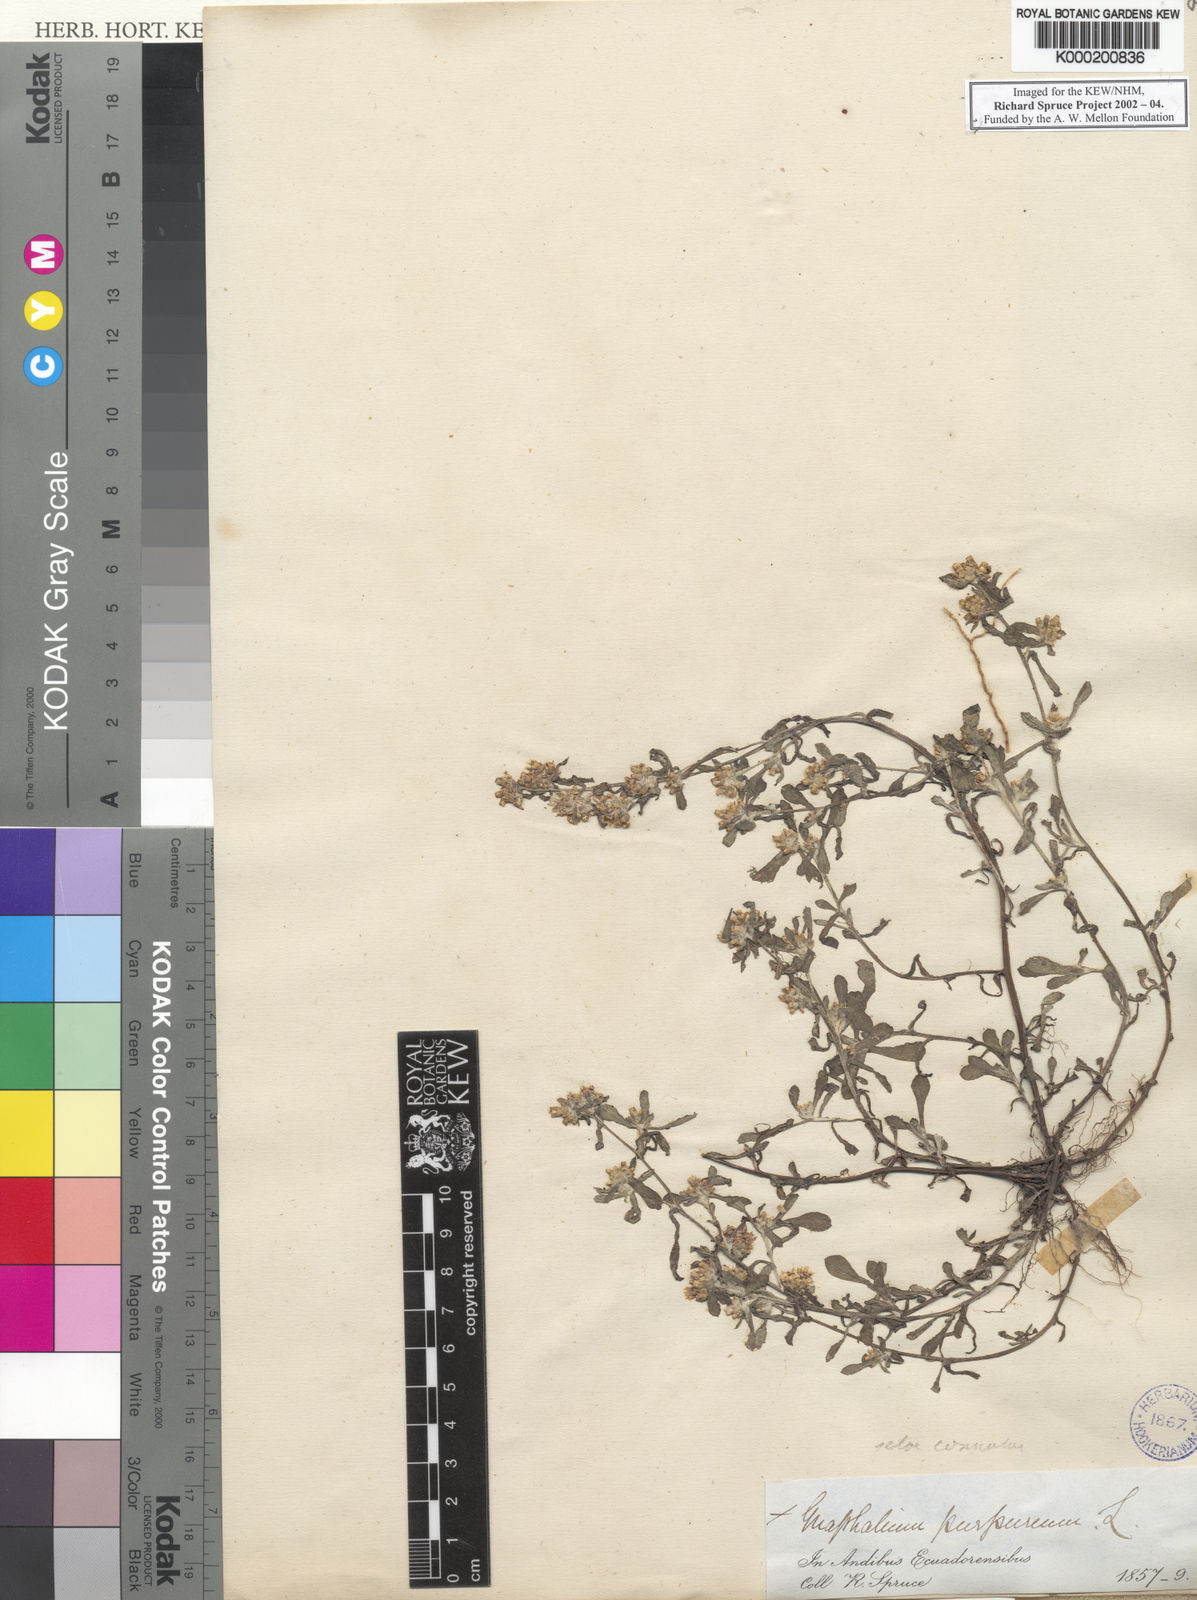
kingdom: Plantae
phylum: Tracheophyta
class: Magnoliopsida
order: Asterales
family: Asteraceae
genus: Gamochaeta
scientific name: Gamochaeta purpurea
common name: Purple cudweed
